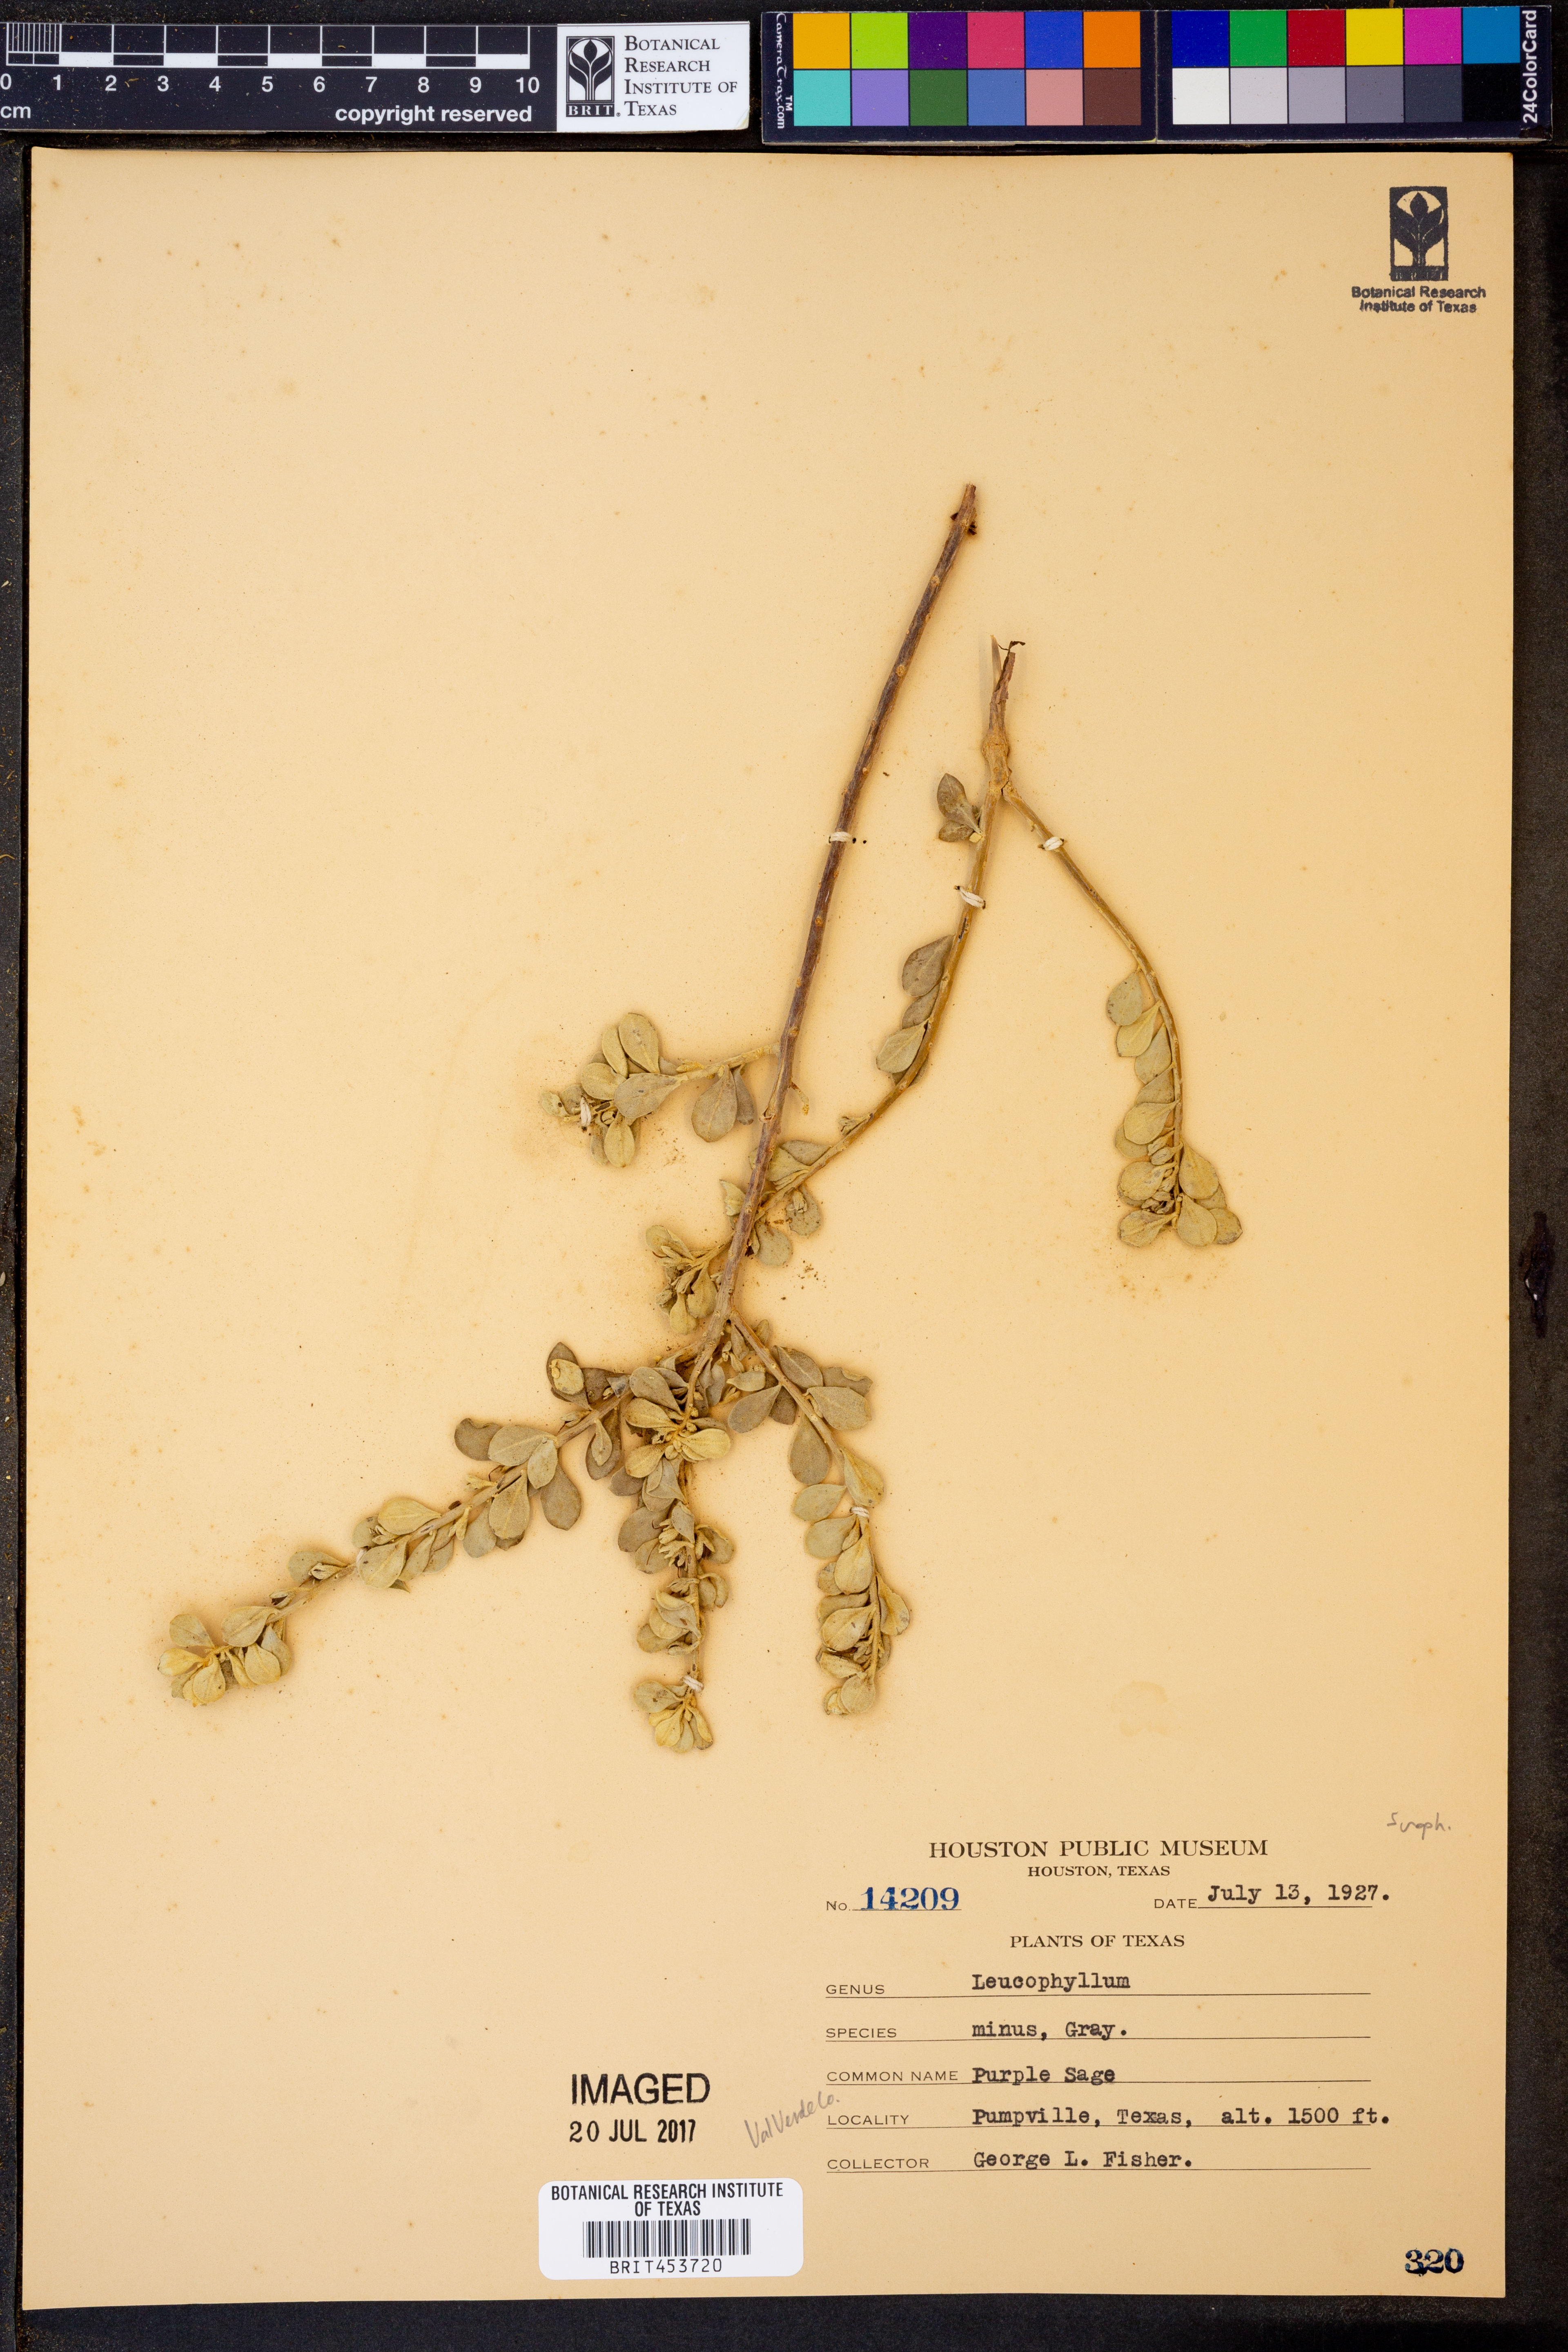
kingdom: Plantae
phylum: Tracheophyta
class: Magnoliopsida
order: Lamiales
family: Scrophulariaceae
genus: Leucophyllum
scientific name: Leucophyllum minus
